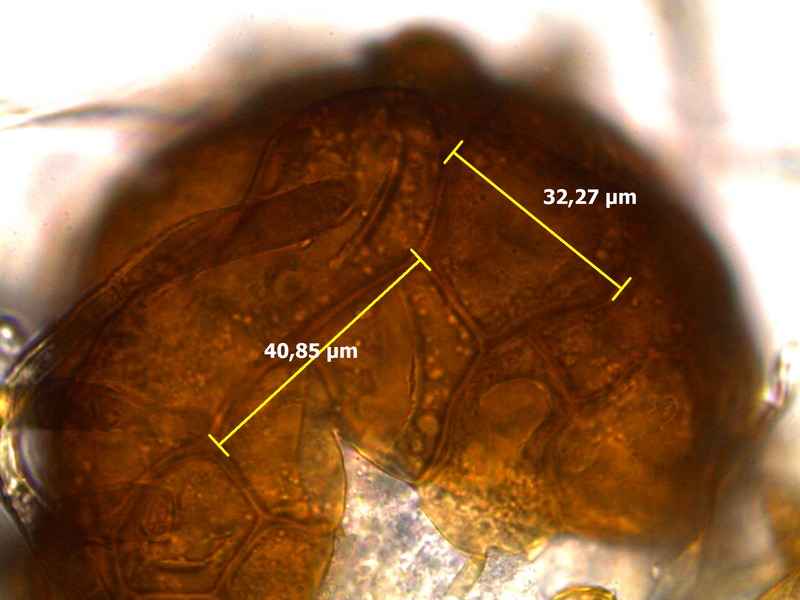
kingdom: Fungi
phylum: Ascomycota
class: Leotiomycetes
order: Helotiales
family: Erysiphaceae
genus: Podosphaera
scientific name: Podosphaera fusca
